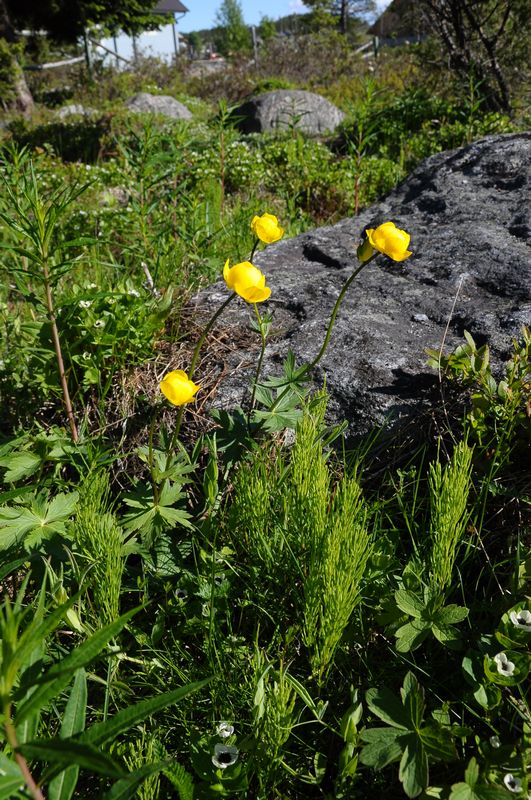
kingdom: Plantae
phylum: Tracheophyta
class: Magnoliopsida
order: Ranunculales
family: Ranunculaceae
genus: Trollius
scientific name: Trollius europaeus
